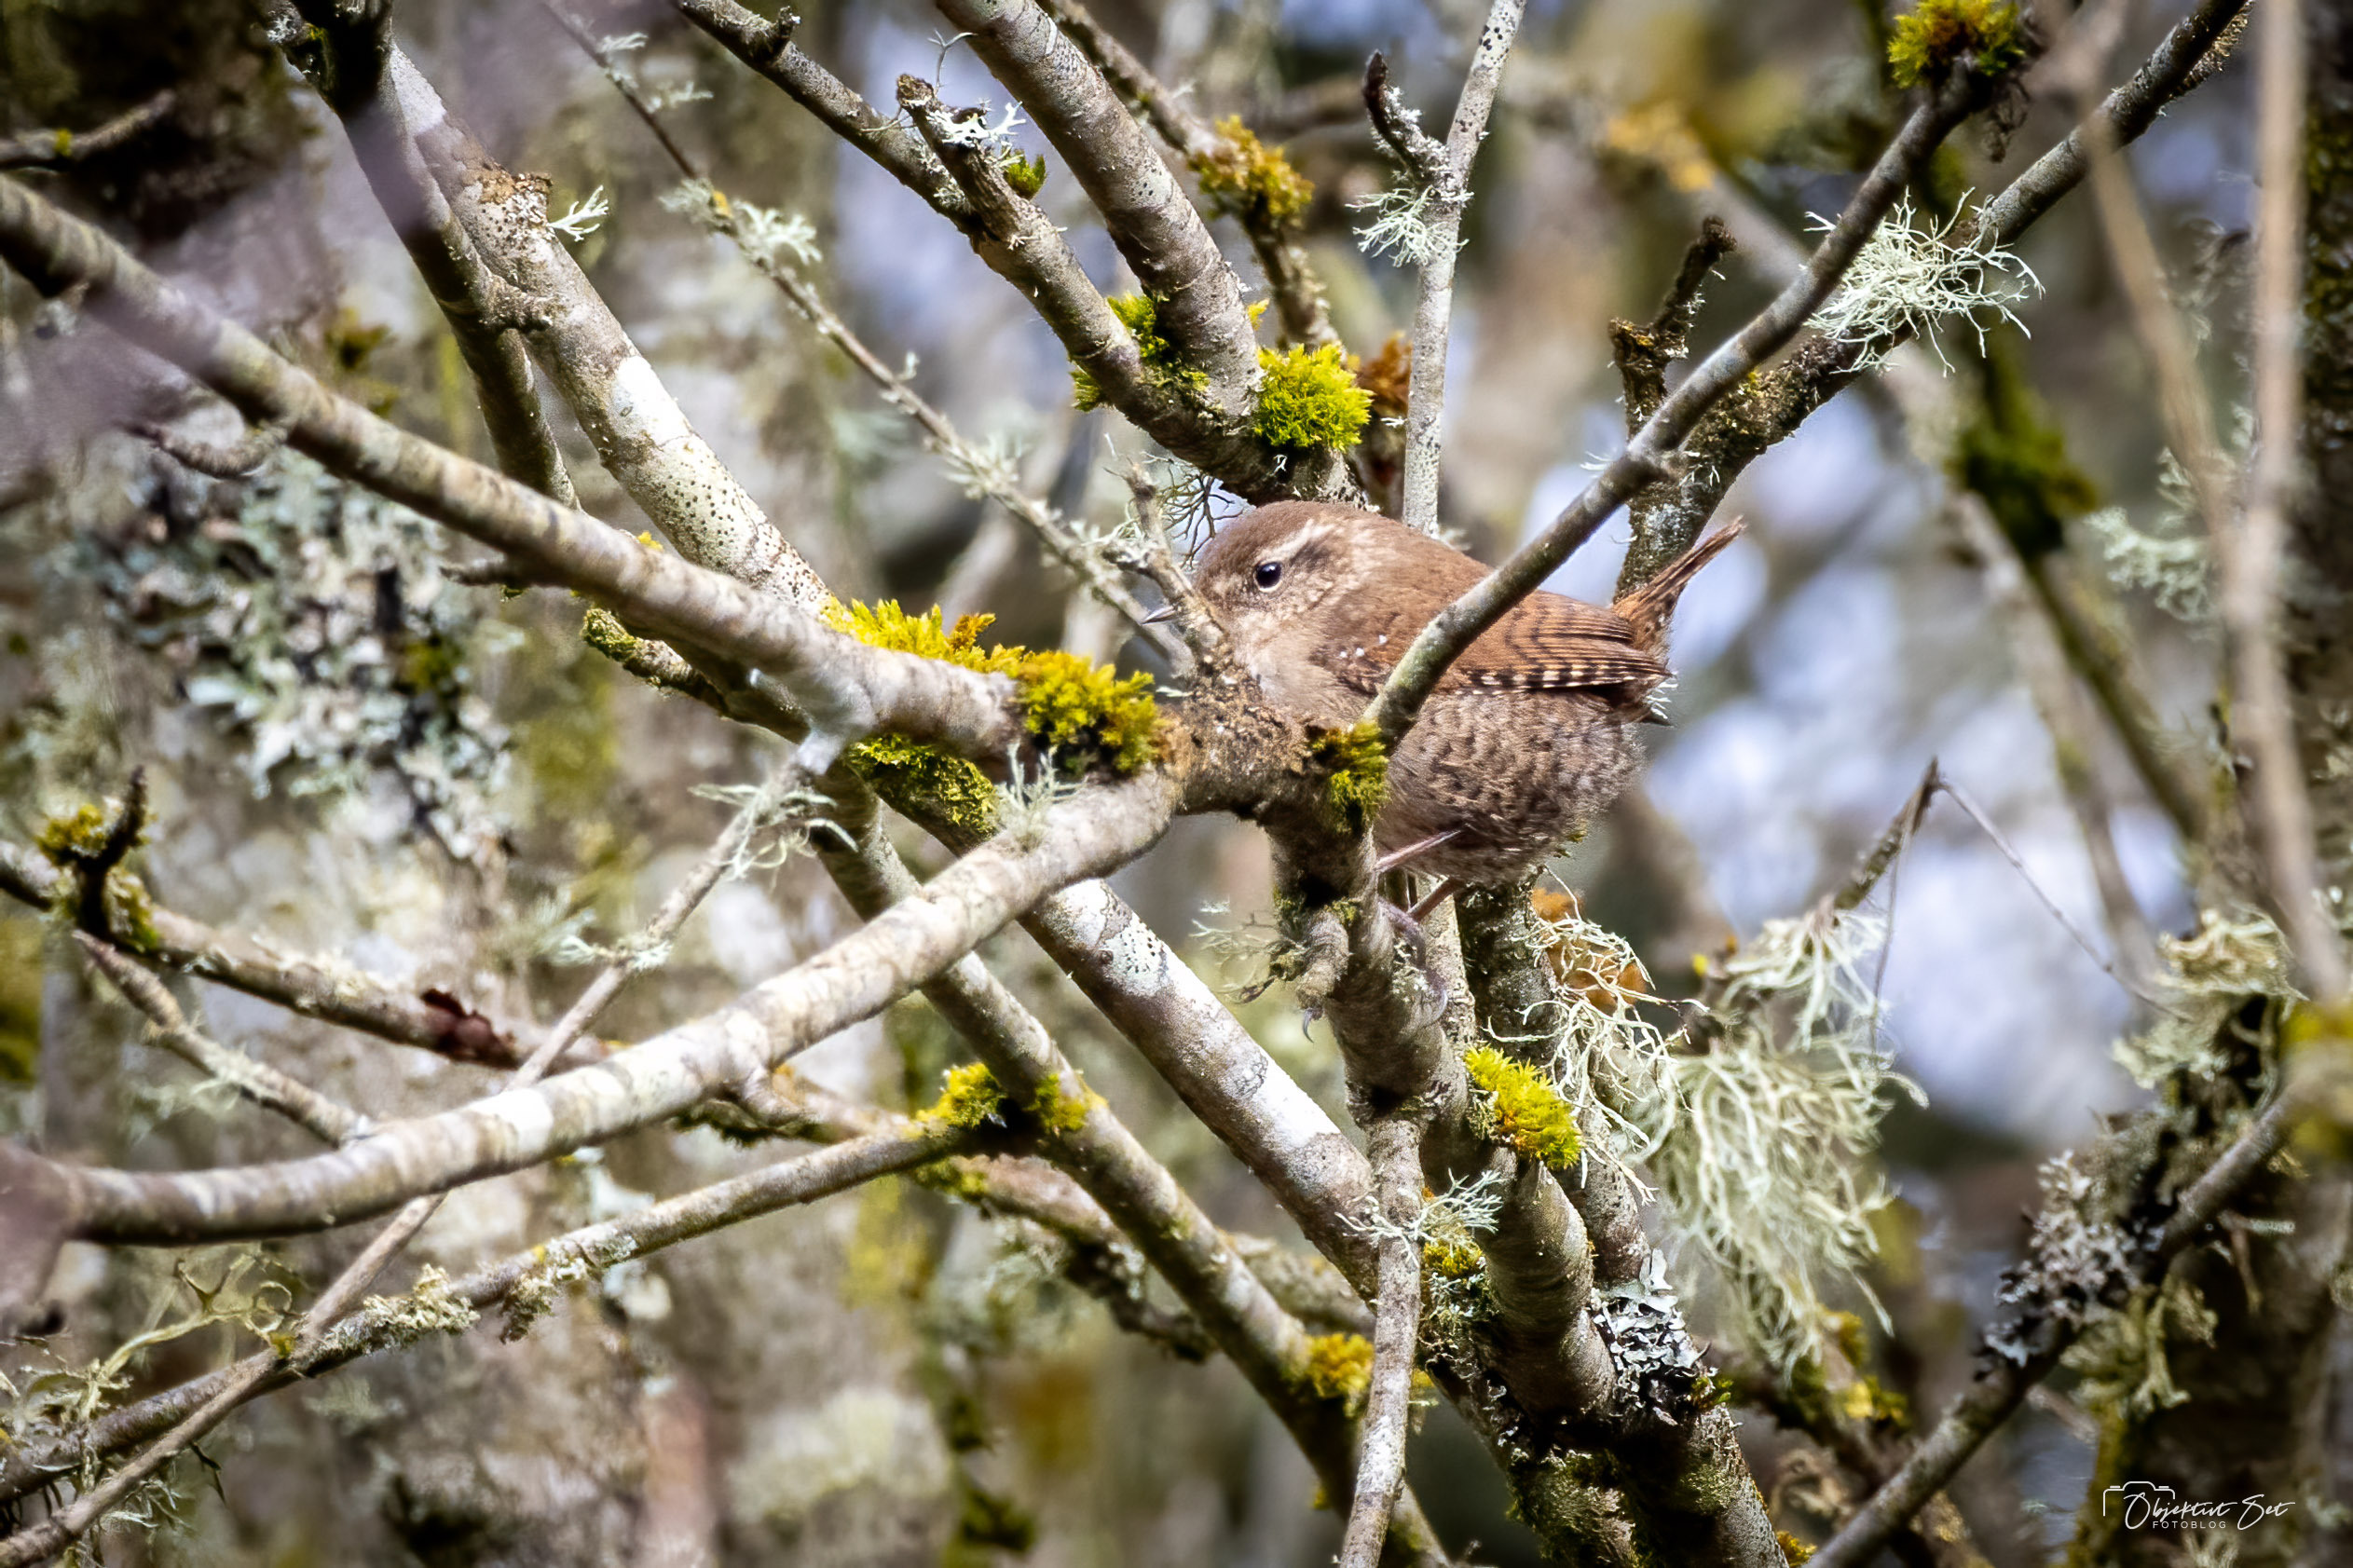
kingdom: Animalia
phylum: Chordata
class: Aves
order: Passeriformes
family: Troglodytidae
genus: Troglodytes
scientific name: Troglodytes troglodytes
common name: Gærdesmutte
